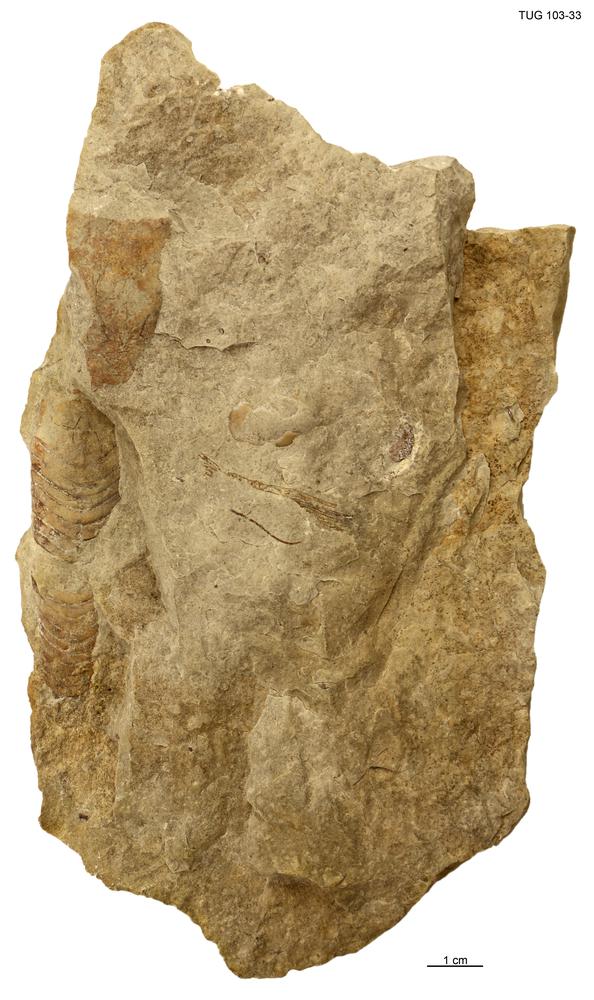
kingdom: Animalia
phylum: Mollusca
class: Cephalopoda
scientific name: Cephalopoda
